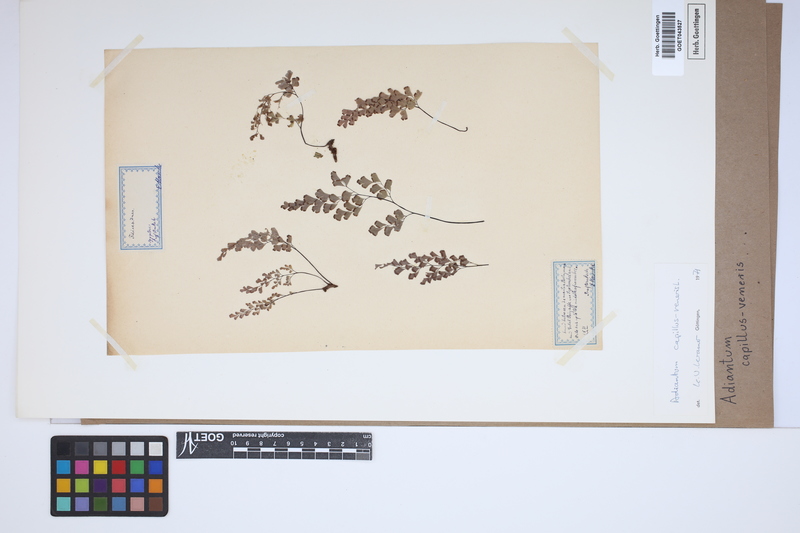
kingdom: Plantae
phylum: Tracheophyta
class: Polypodiopsida
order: Polypodiales
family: Pteridaceae
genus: Adiantum
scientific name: Adiantum capillus-veneris
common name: Maidenhair fern
